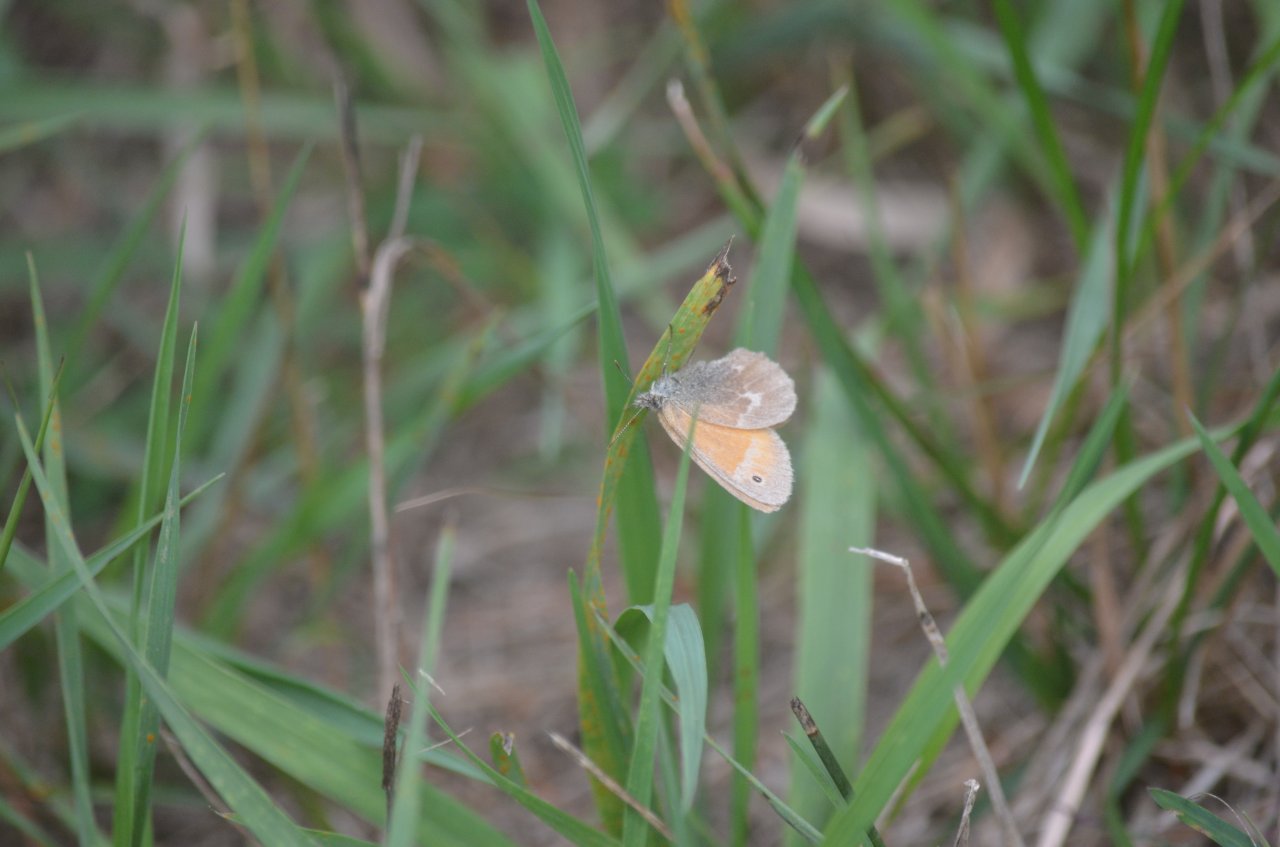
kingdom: Animalia
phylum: Arthropoda
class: Insecta
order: Lepidoptera
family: Nymphalidae
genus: Coenonympha
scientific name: Coenonympha tullia
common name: Large Heath
